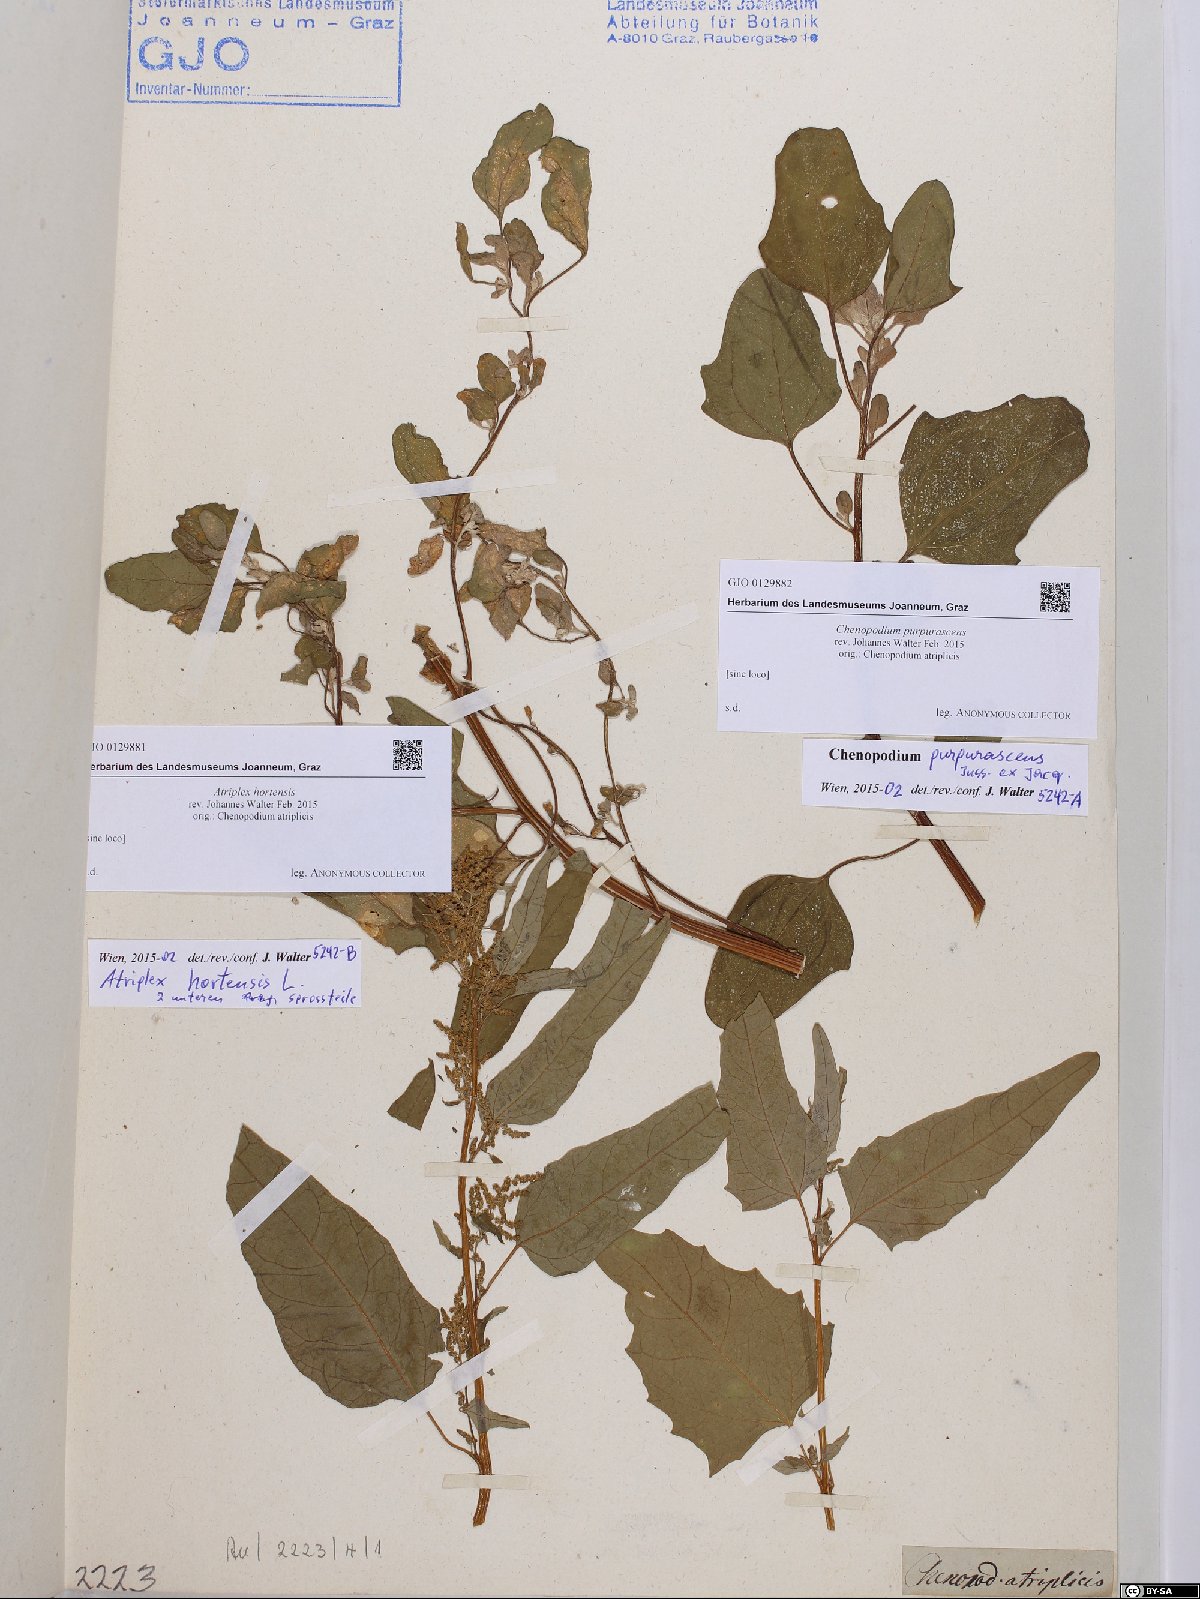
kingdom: Plantae
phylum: Tracheophyta
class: Magnoliopsida
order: Caryophyllales
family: Amaranthaceae
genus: Chenopodium
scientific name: Chenopodium quinoa
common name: Quinoa
